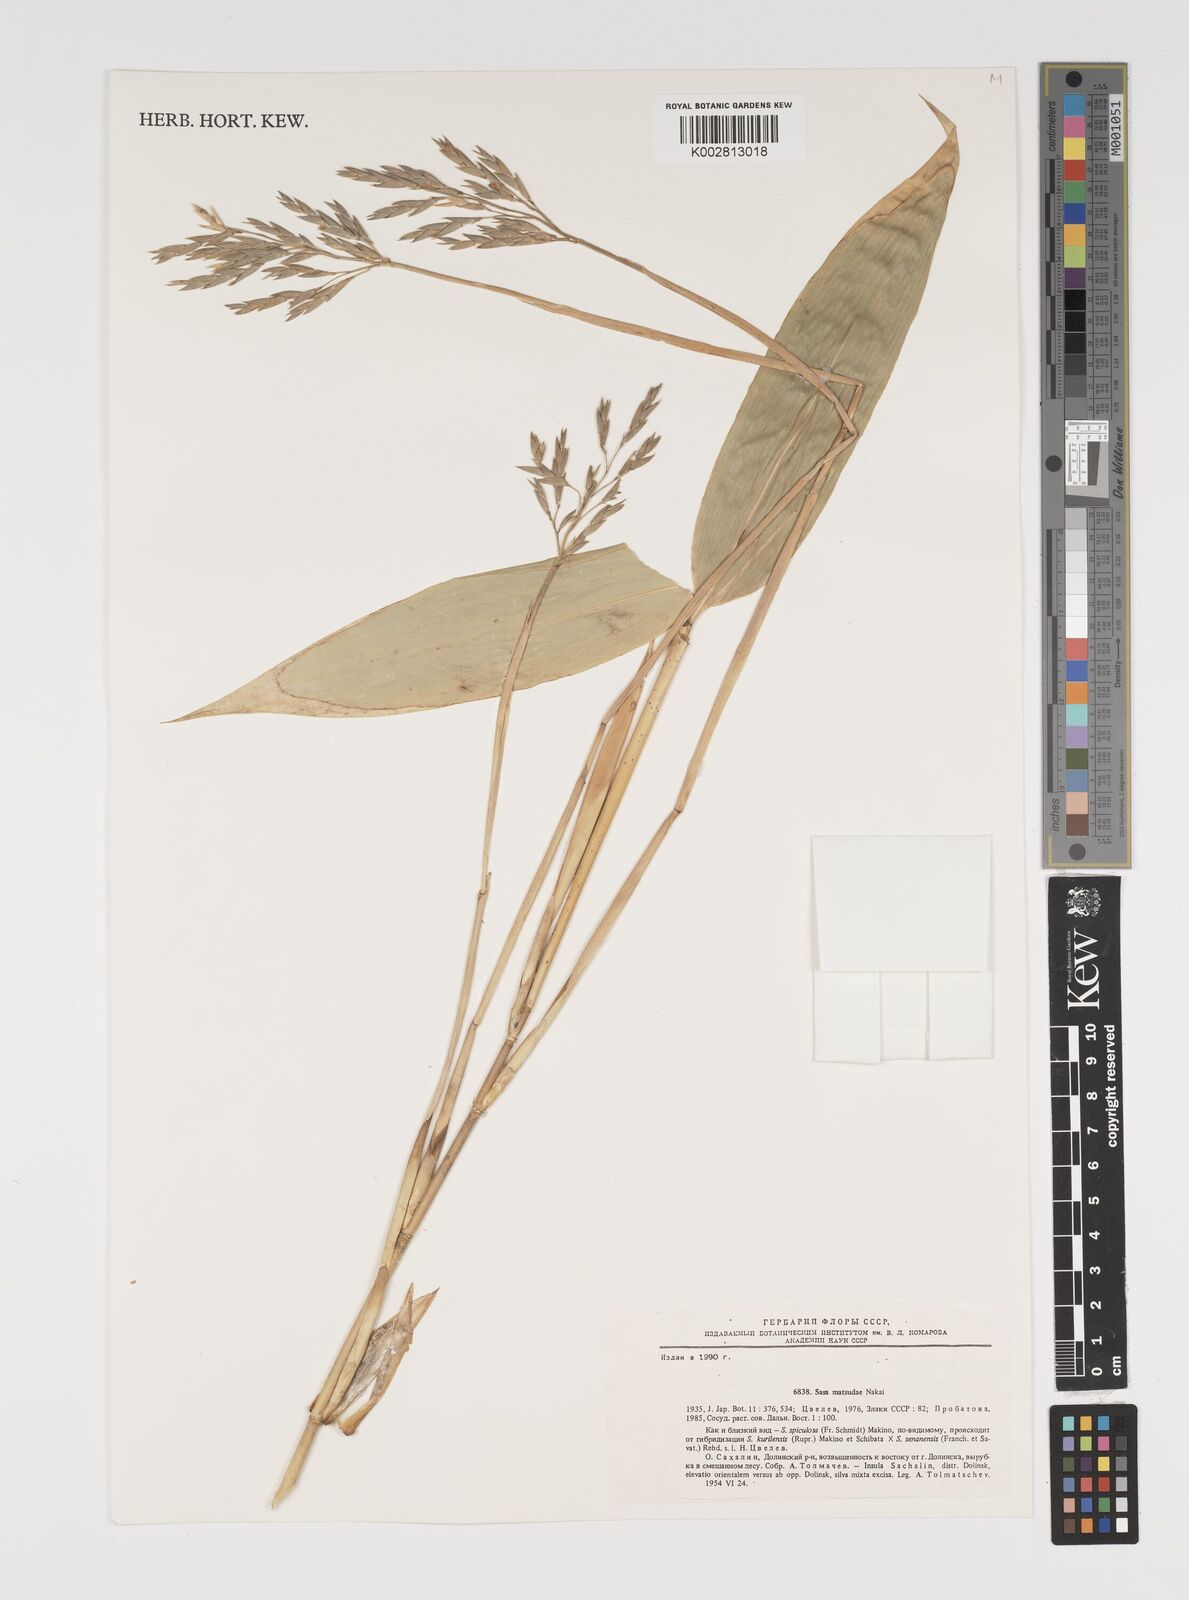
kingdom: Plantae
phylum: Tracheophyta
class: Liliopsida
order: Poales
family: Poaceae
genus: Sasa
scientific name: Sasa cernua
